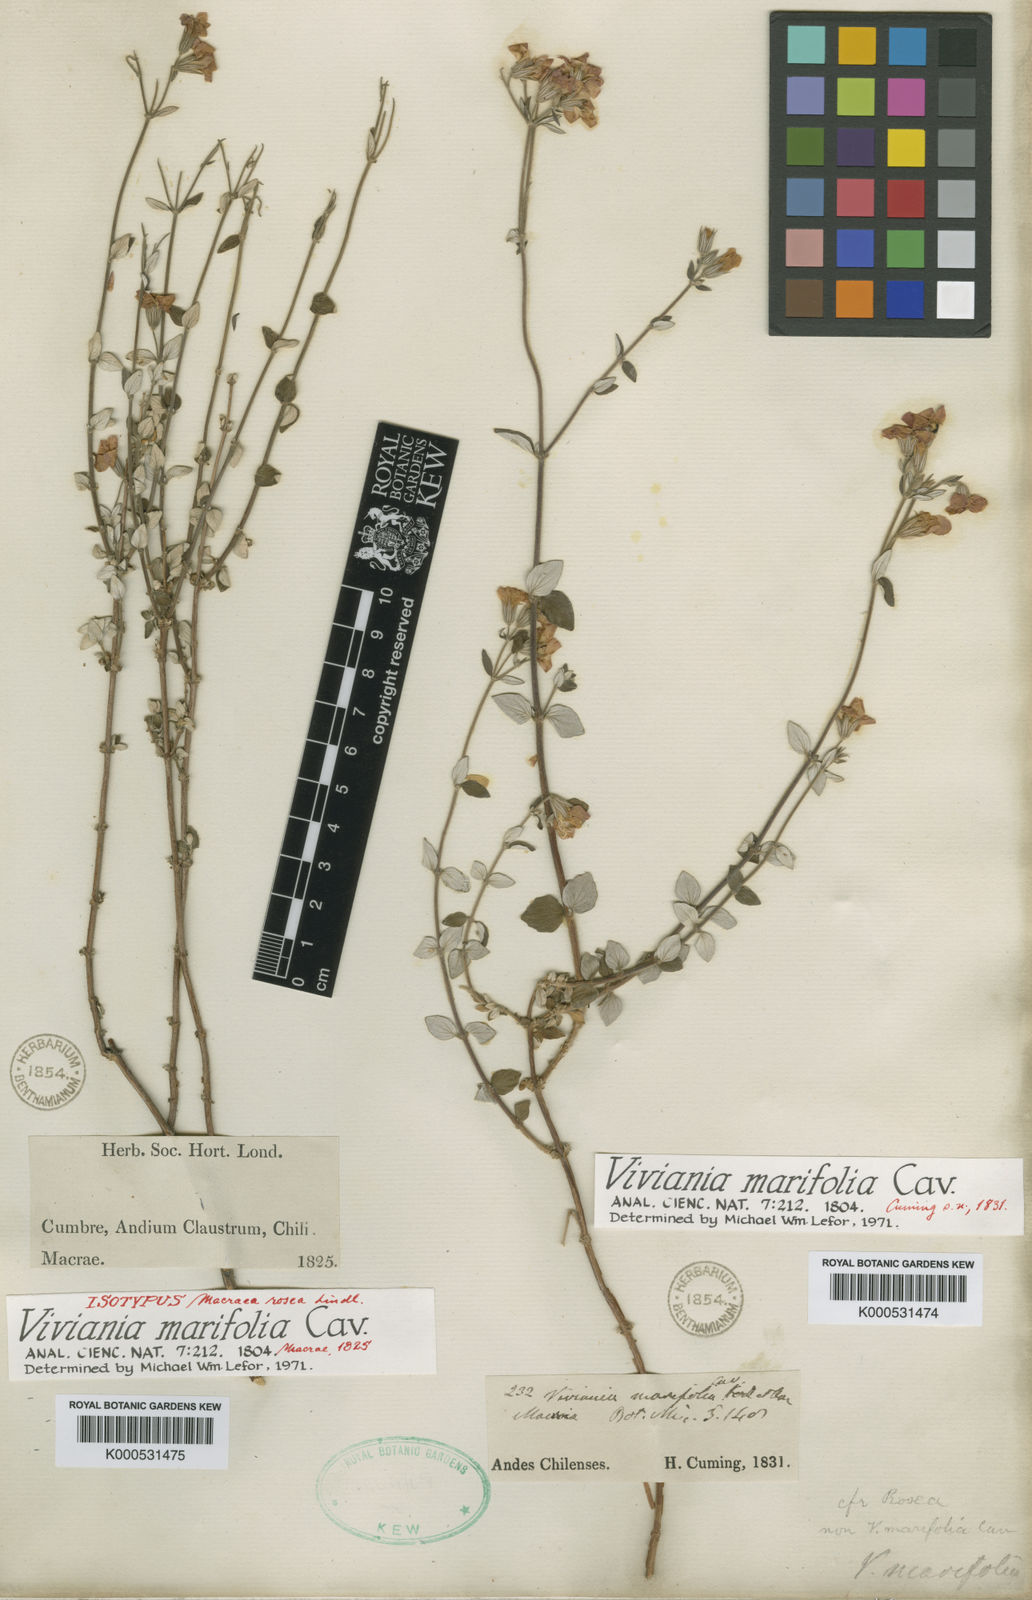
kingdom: Plantae
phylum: Tracheophyta
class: Magnoliopsida
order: Geraniales
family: Vivianiaceae
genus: Viviania
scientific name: Viviania marifolia
